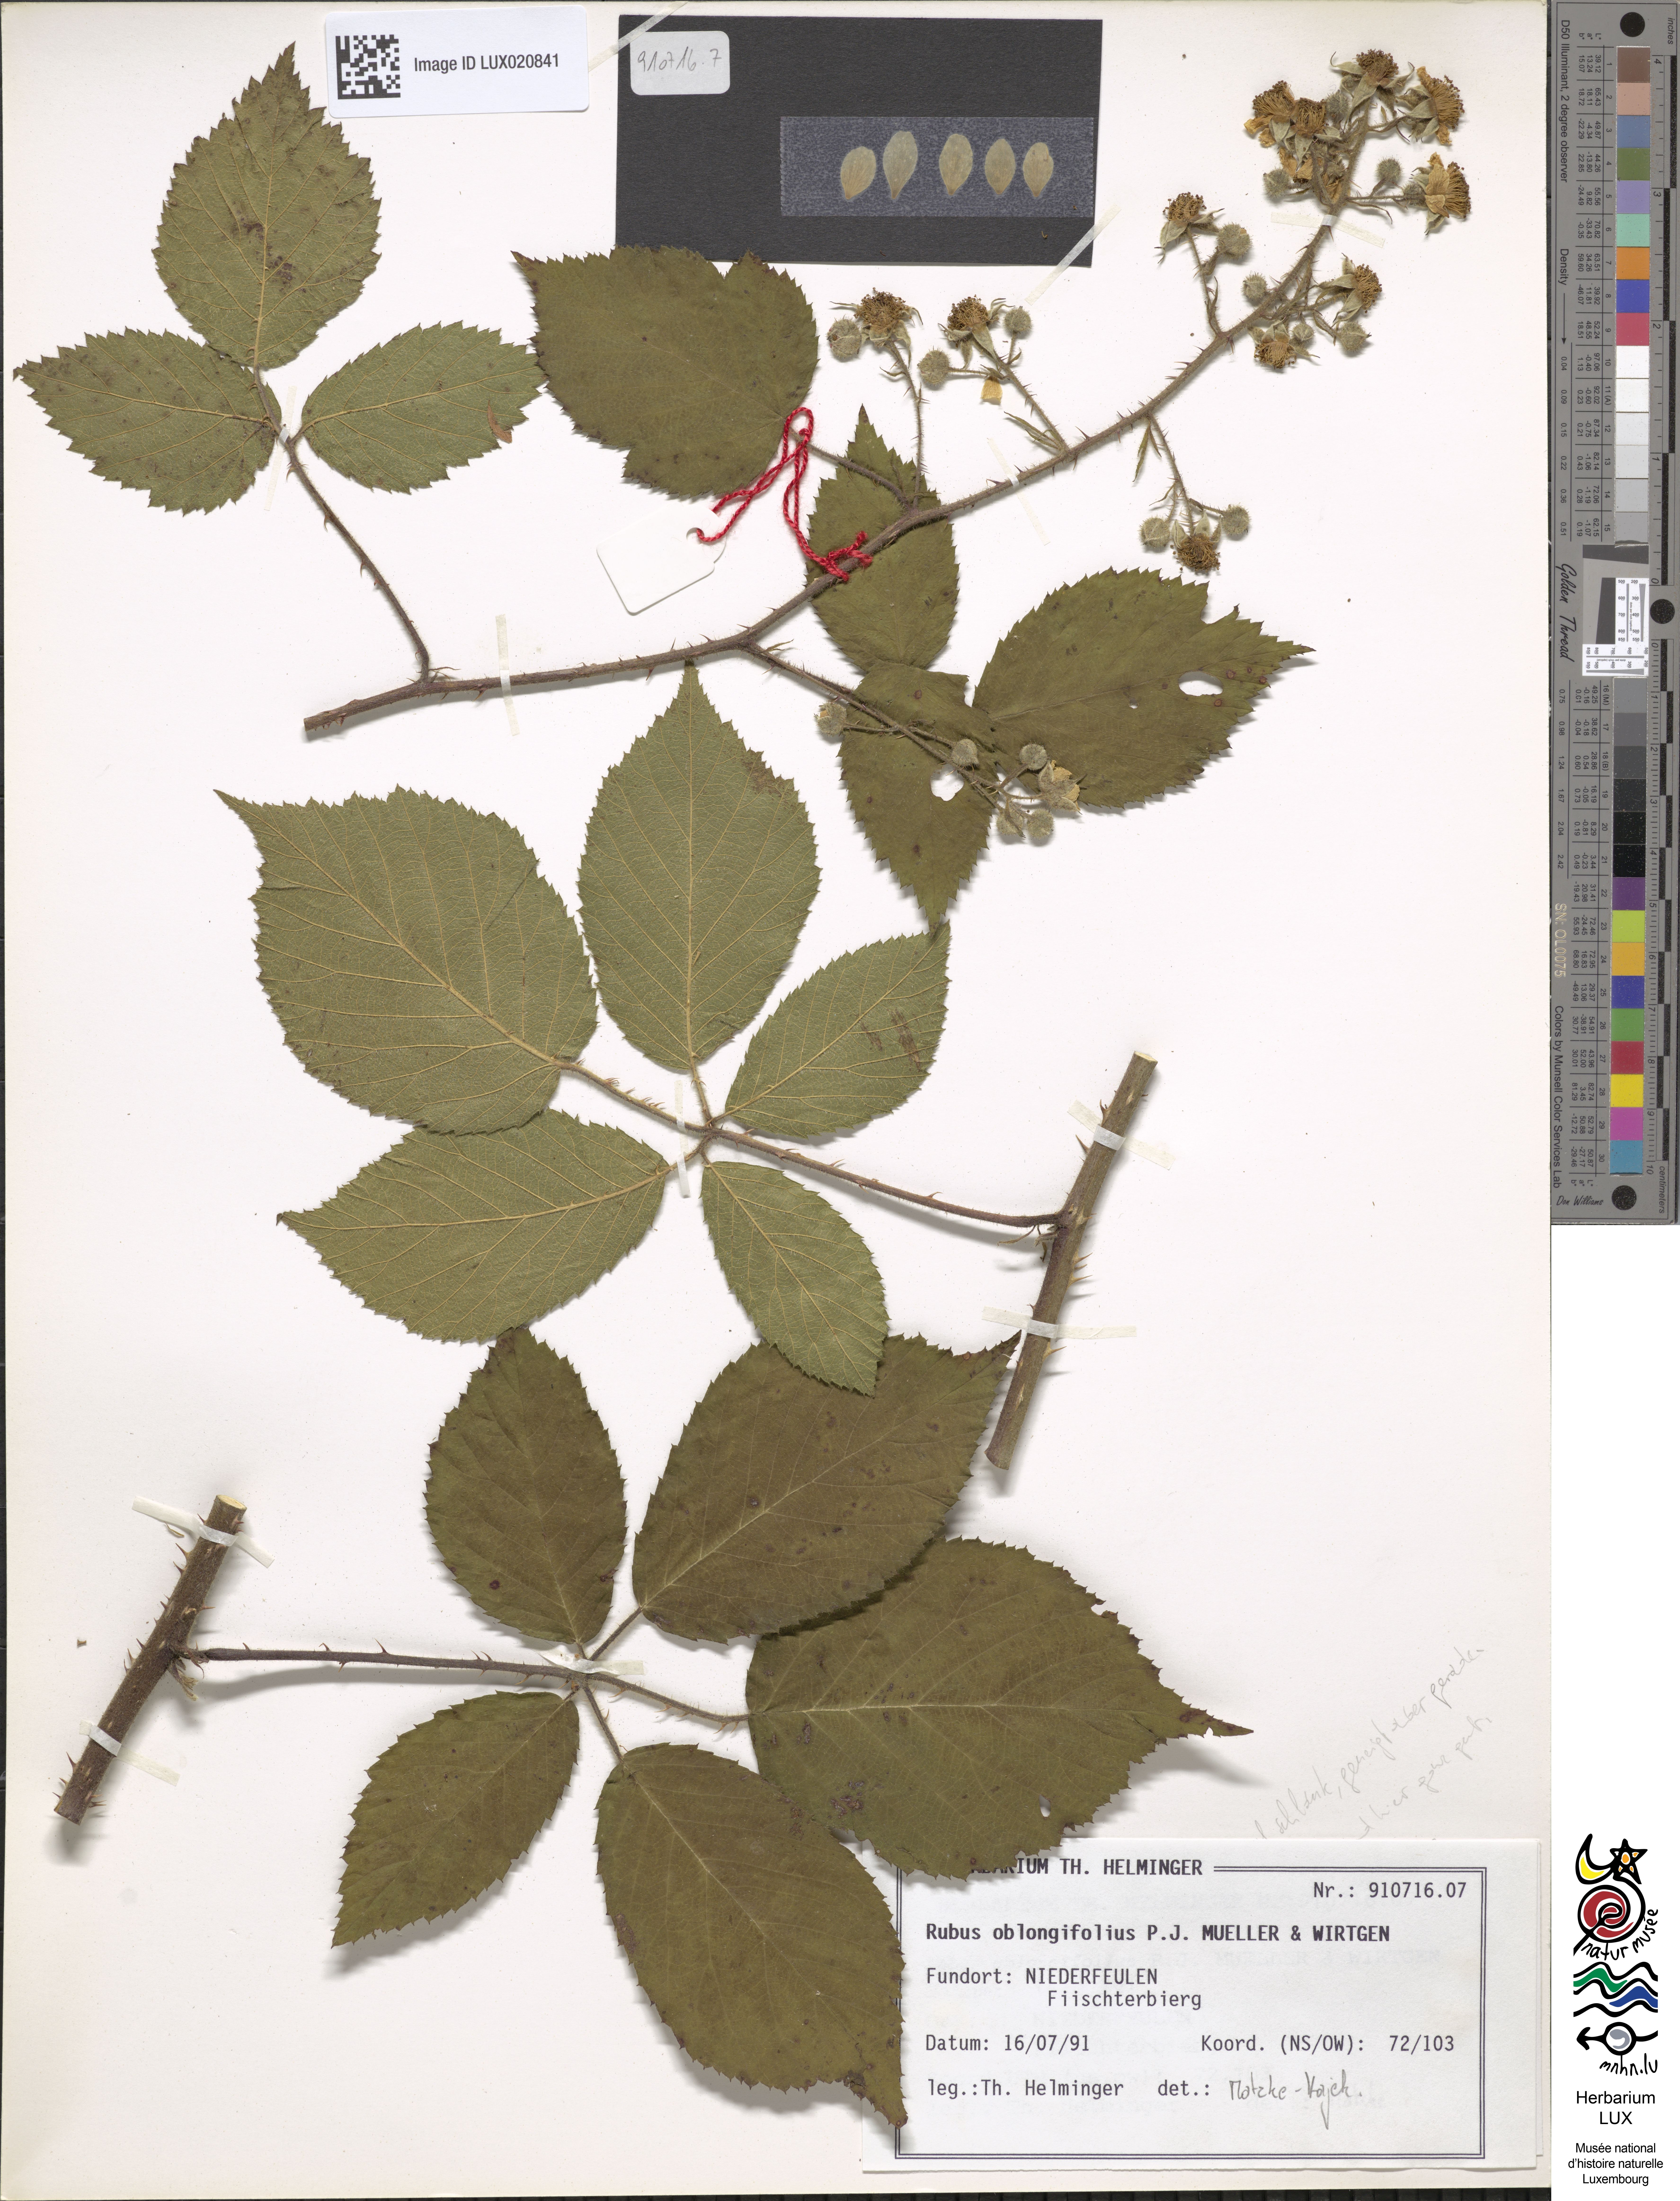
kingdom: Plantae
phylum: Tracheophyta
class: Magnoliopsida
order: Rosales
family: Rosaceae
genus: Rubus
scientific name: Rubus oblongifolius
